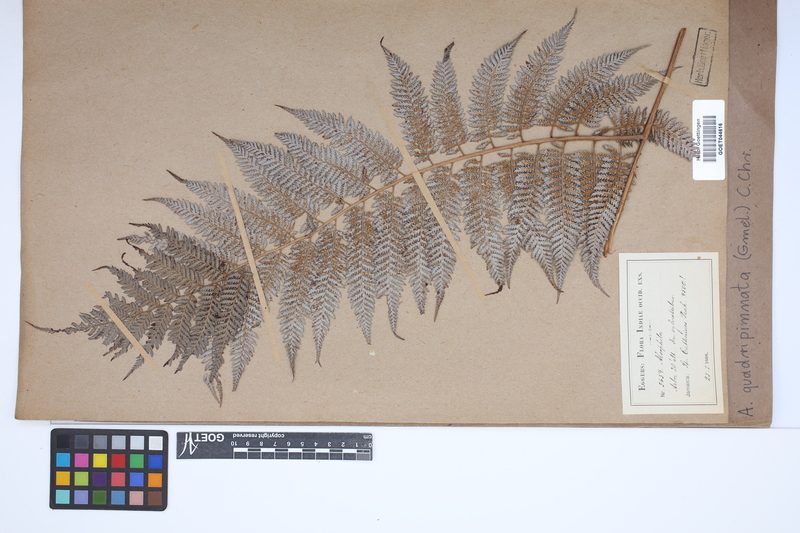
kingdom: Plantae
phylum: Tracheophyta
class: Polypodiopsida
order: Cyatheales
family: Dicksoniaceae
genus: Lophosoria
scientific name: Lophosoria quadripinnata
